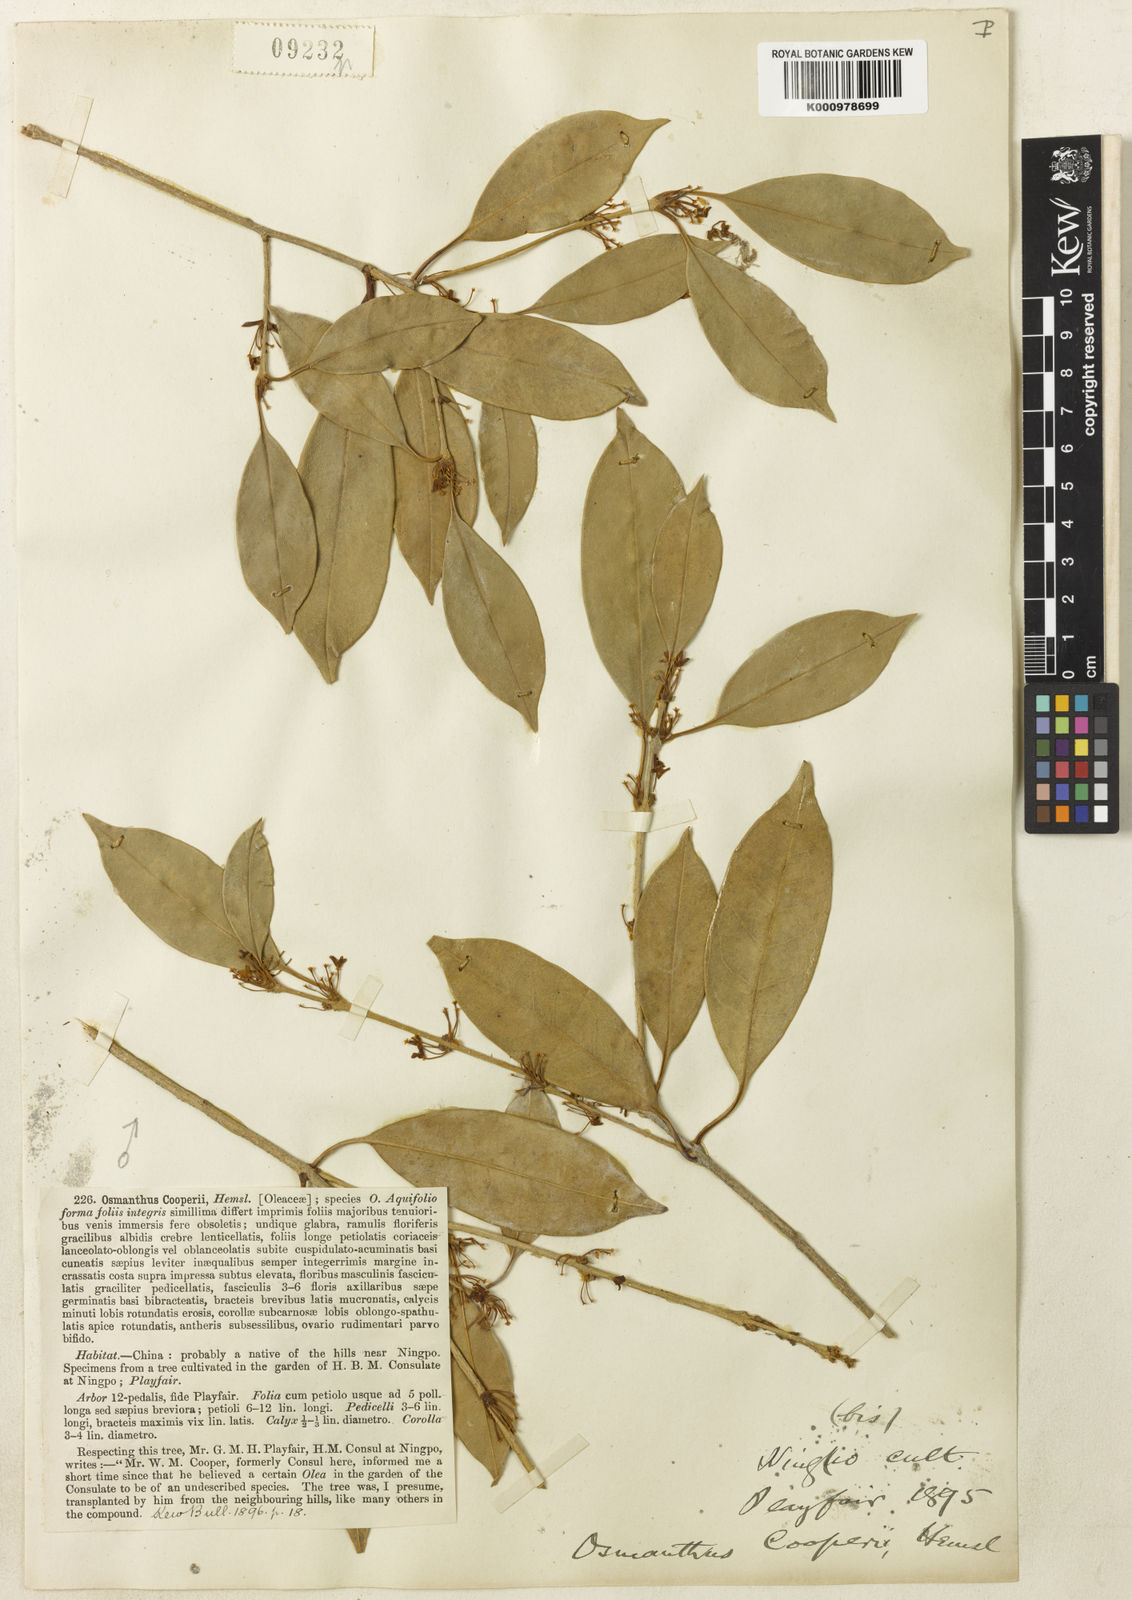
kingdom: Plantae
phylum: Tracheophyta
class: Magnoliopsida
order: Lamiales
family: Oleaceae
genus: Osmanthus
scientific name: Osmanthus cooperi
